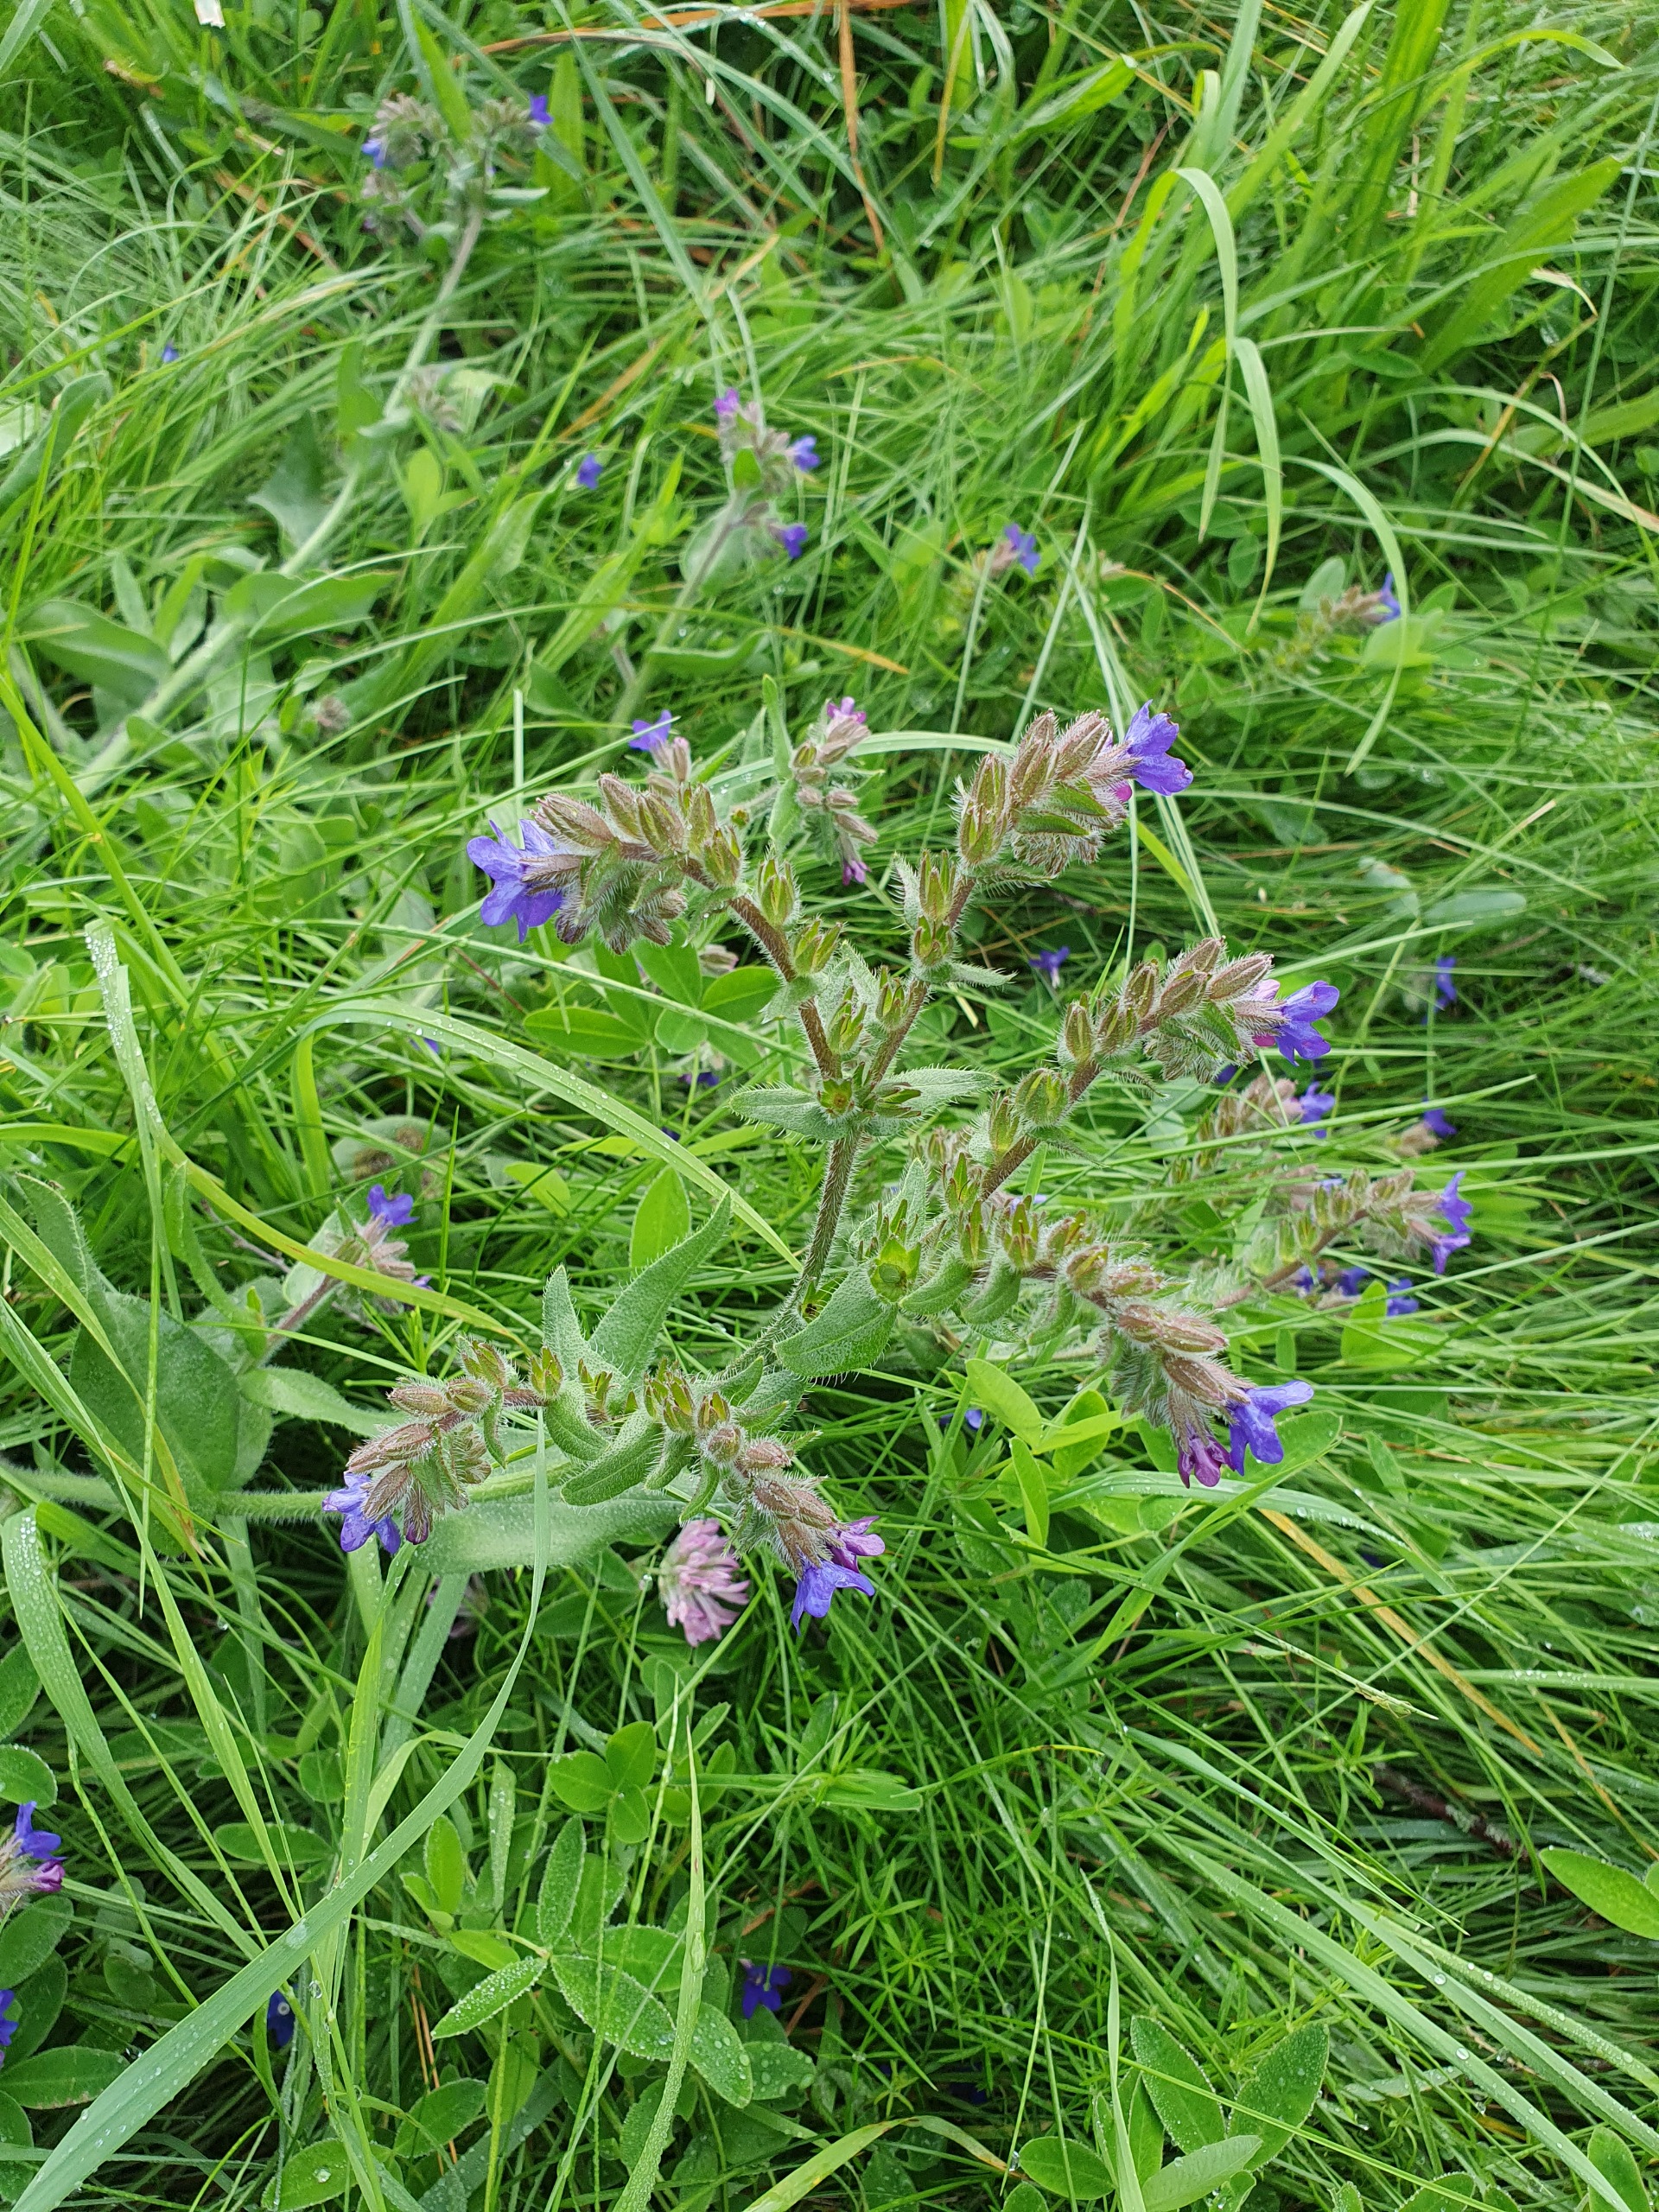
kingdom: Plantae
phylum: Tracheophyta
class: Magnoliopsida
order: Boraginales
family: Boraginaceae
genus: Anchusa
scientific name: Anchusa officinalis
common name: Læge-oksetunge
